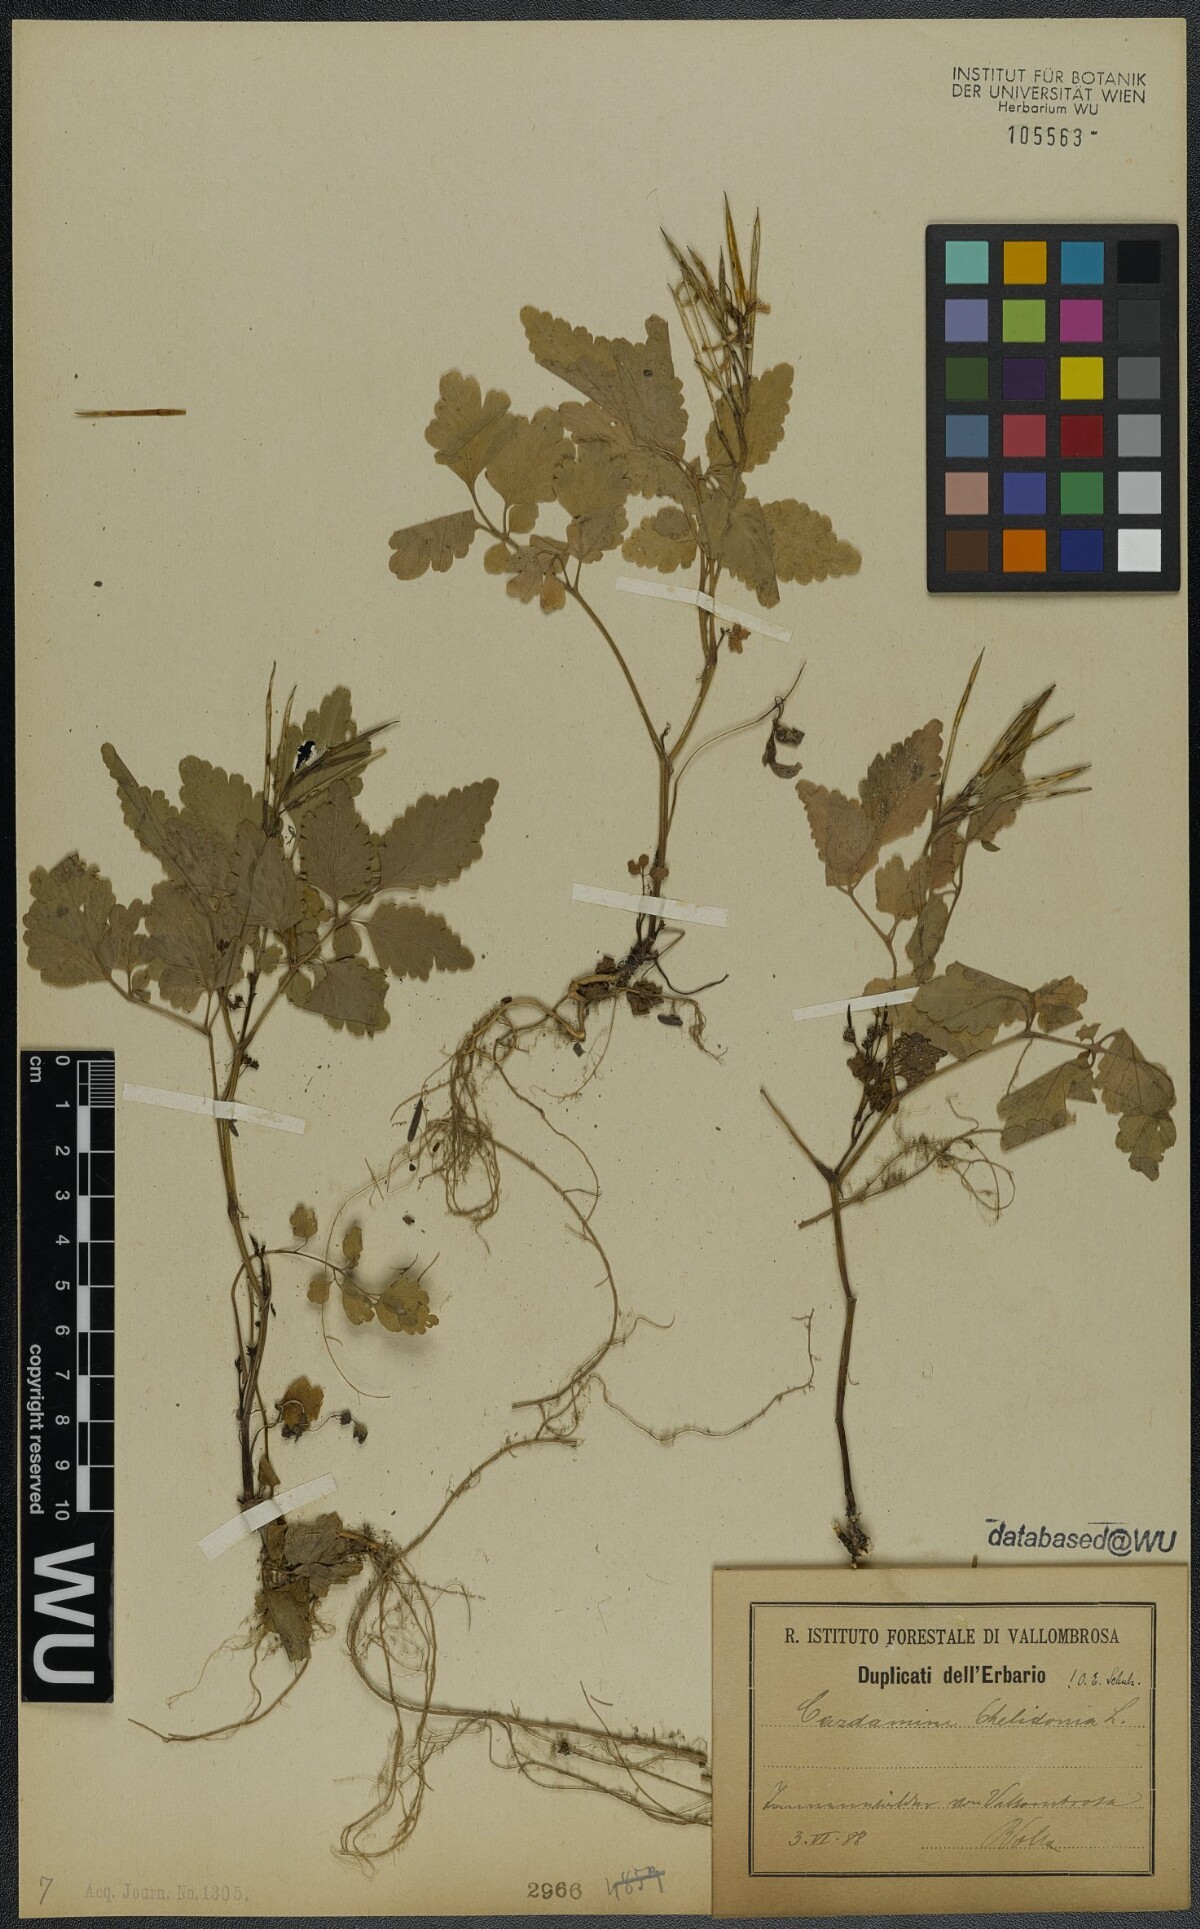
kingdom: Plantae
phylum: Tracheophyta
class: Magnoliopsida
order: Brassicales
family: Brassicaceae
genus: Cardamine
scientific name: Cardamine chelidonia
